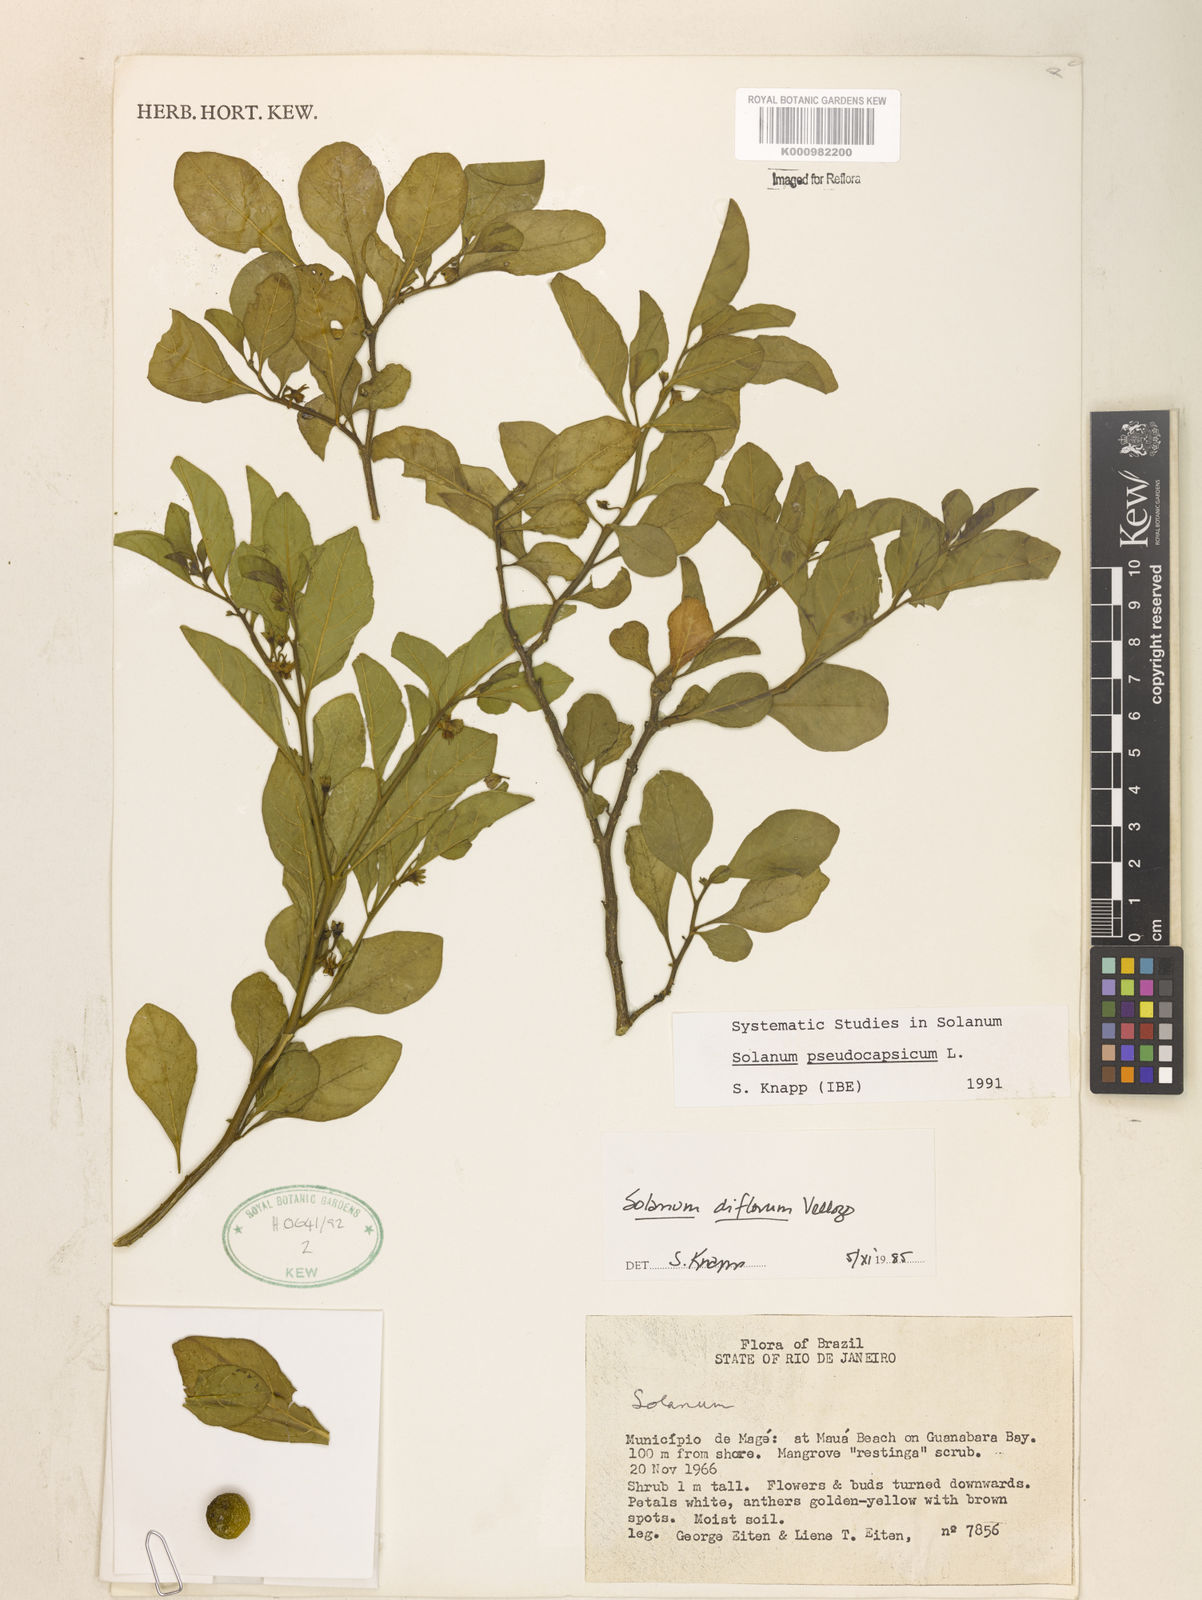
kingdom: Plantae
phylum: Tracheophyta
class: Magnoliopsida
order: Solanales
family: Solanaceae
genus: Solanum
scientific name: Solanum pseudocapsicum
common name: Jerusalem cherry
